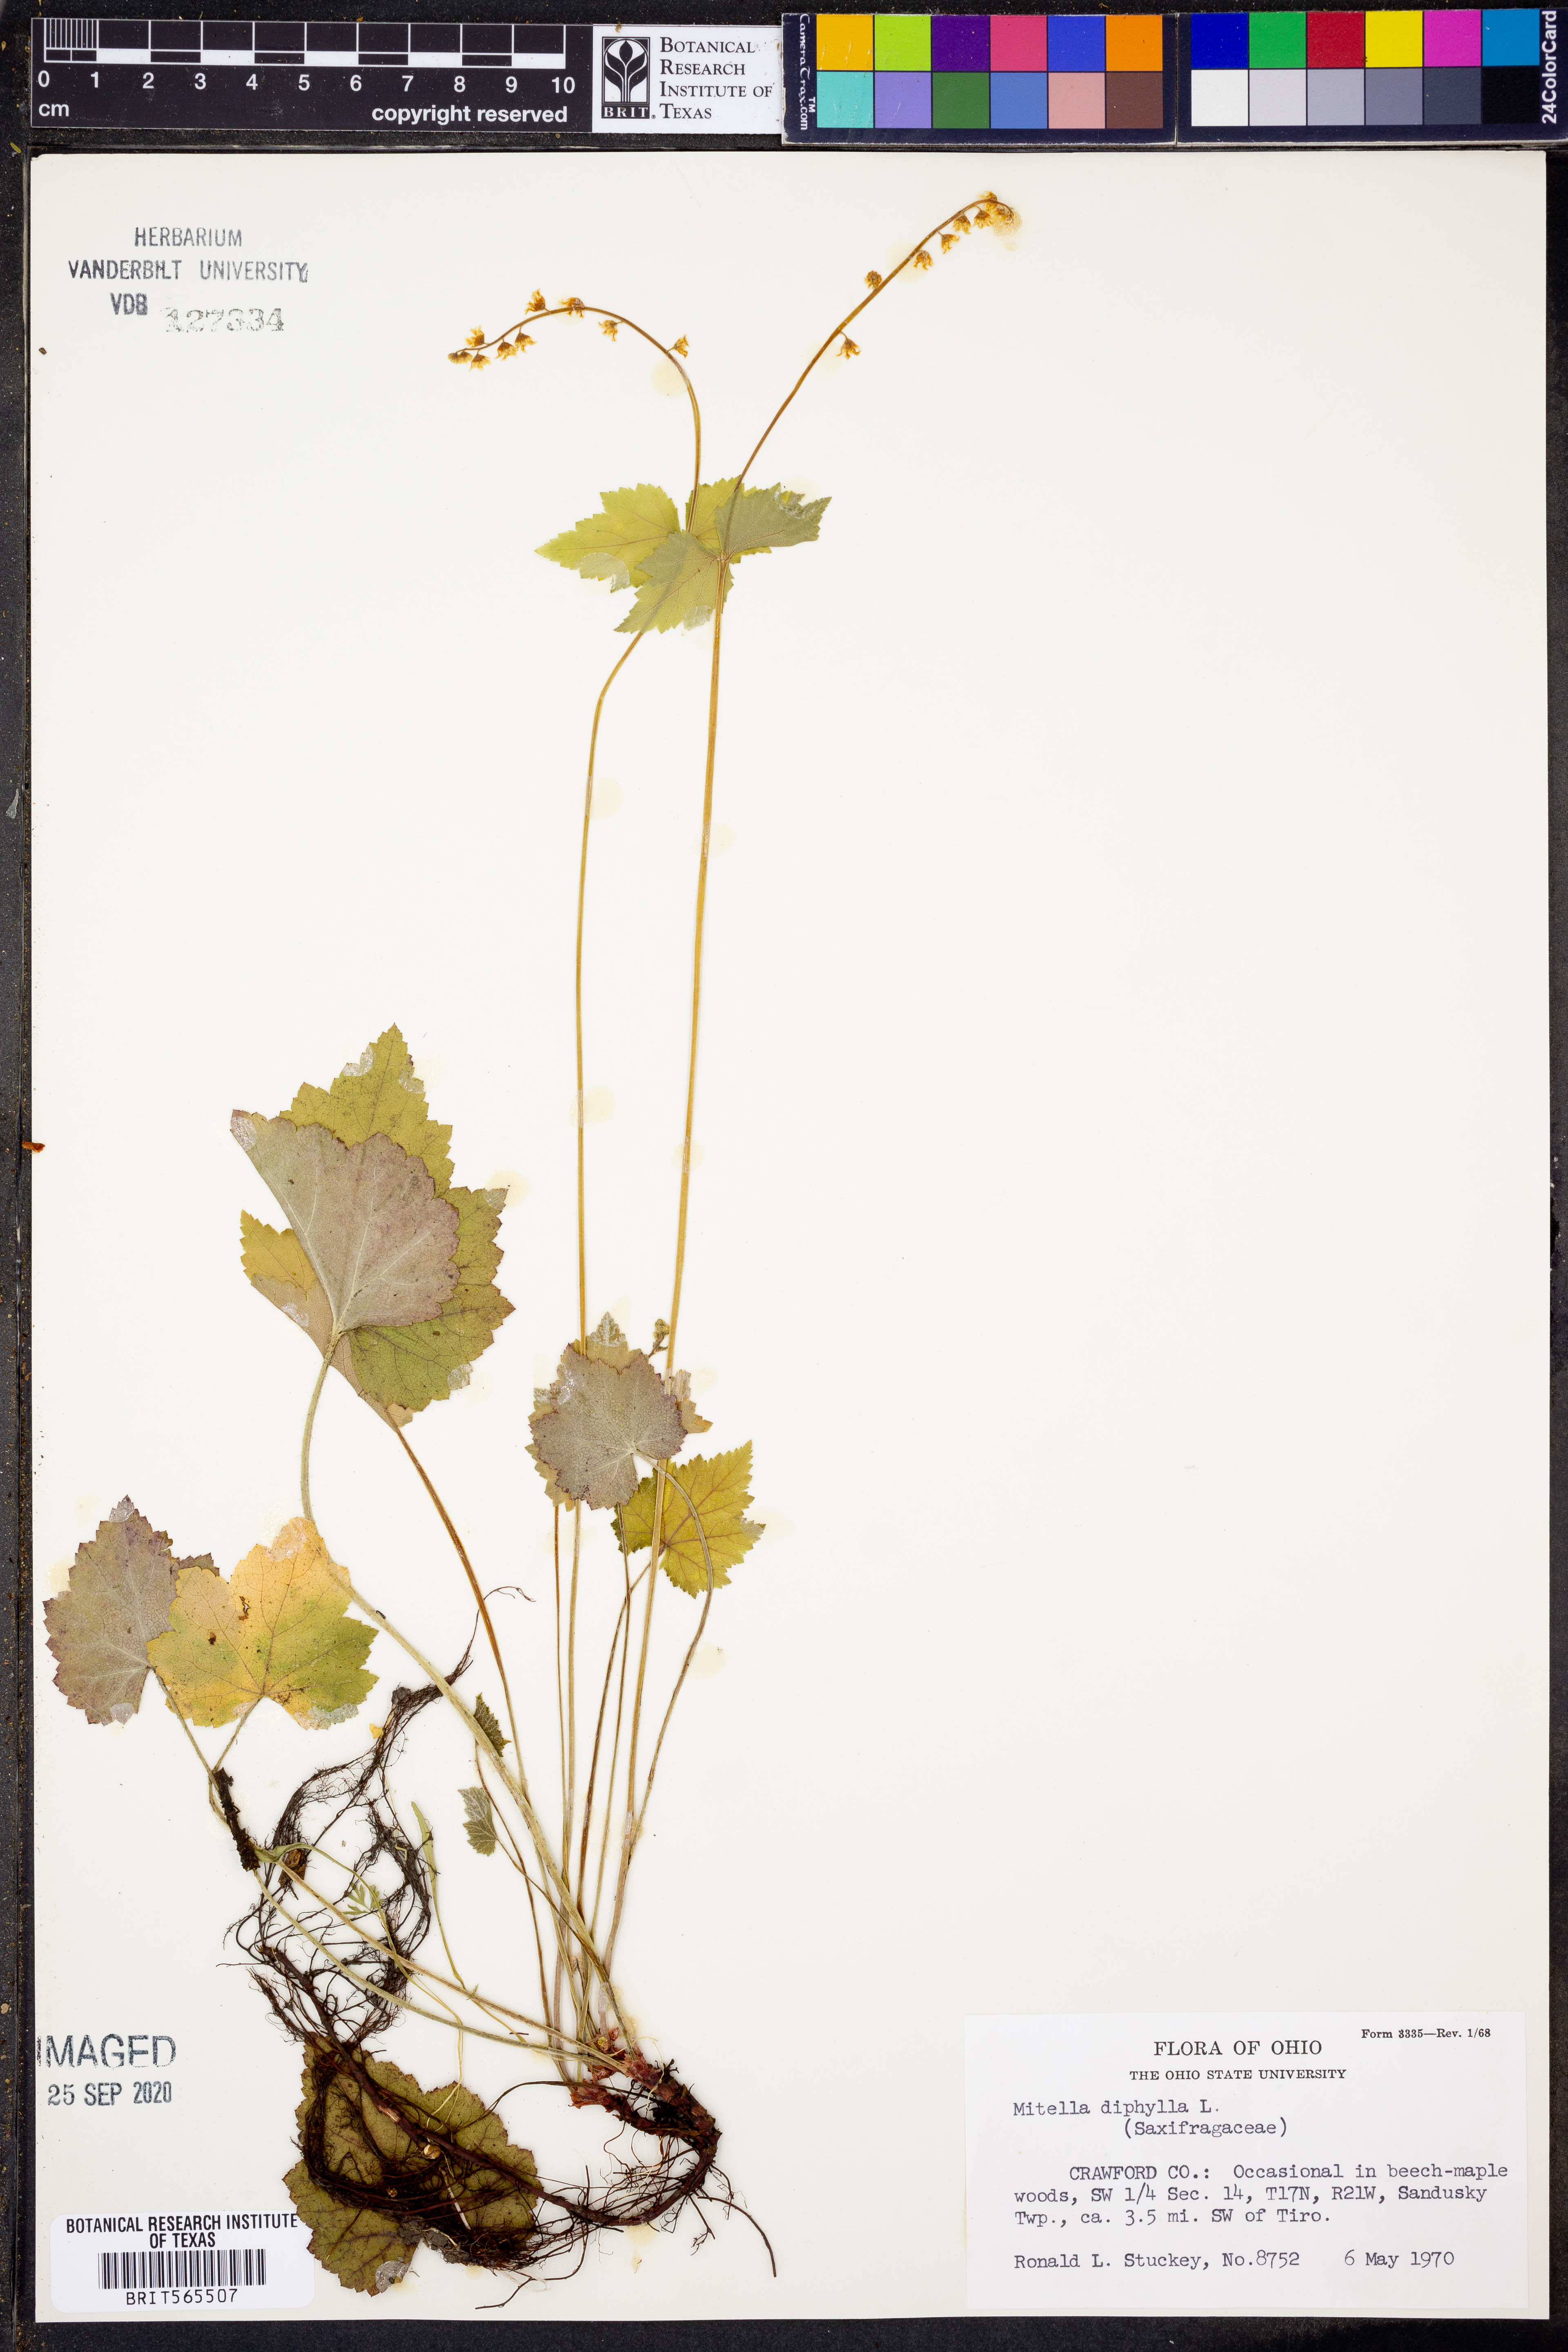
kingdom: Plantae
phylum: Tracheophyta
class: Magnoliopsida
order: Saxifragales
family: Saxifragaceae
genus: Mitella
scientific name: Mitella diphylla
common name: Coolwort
